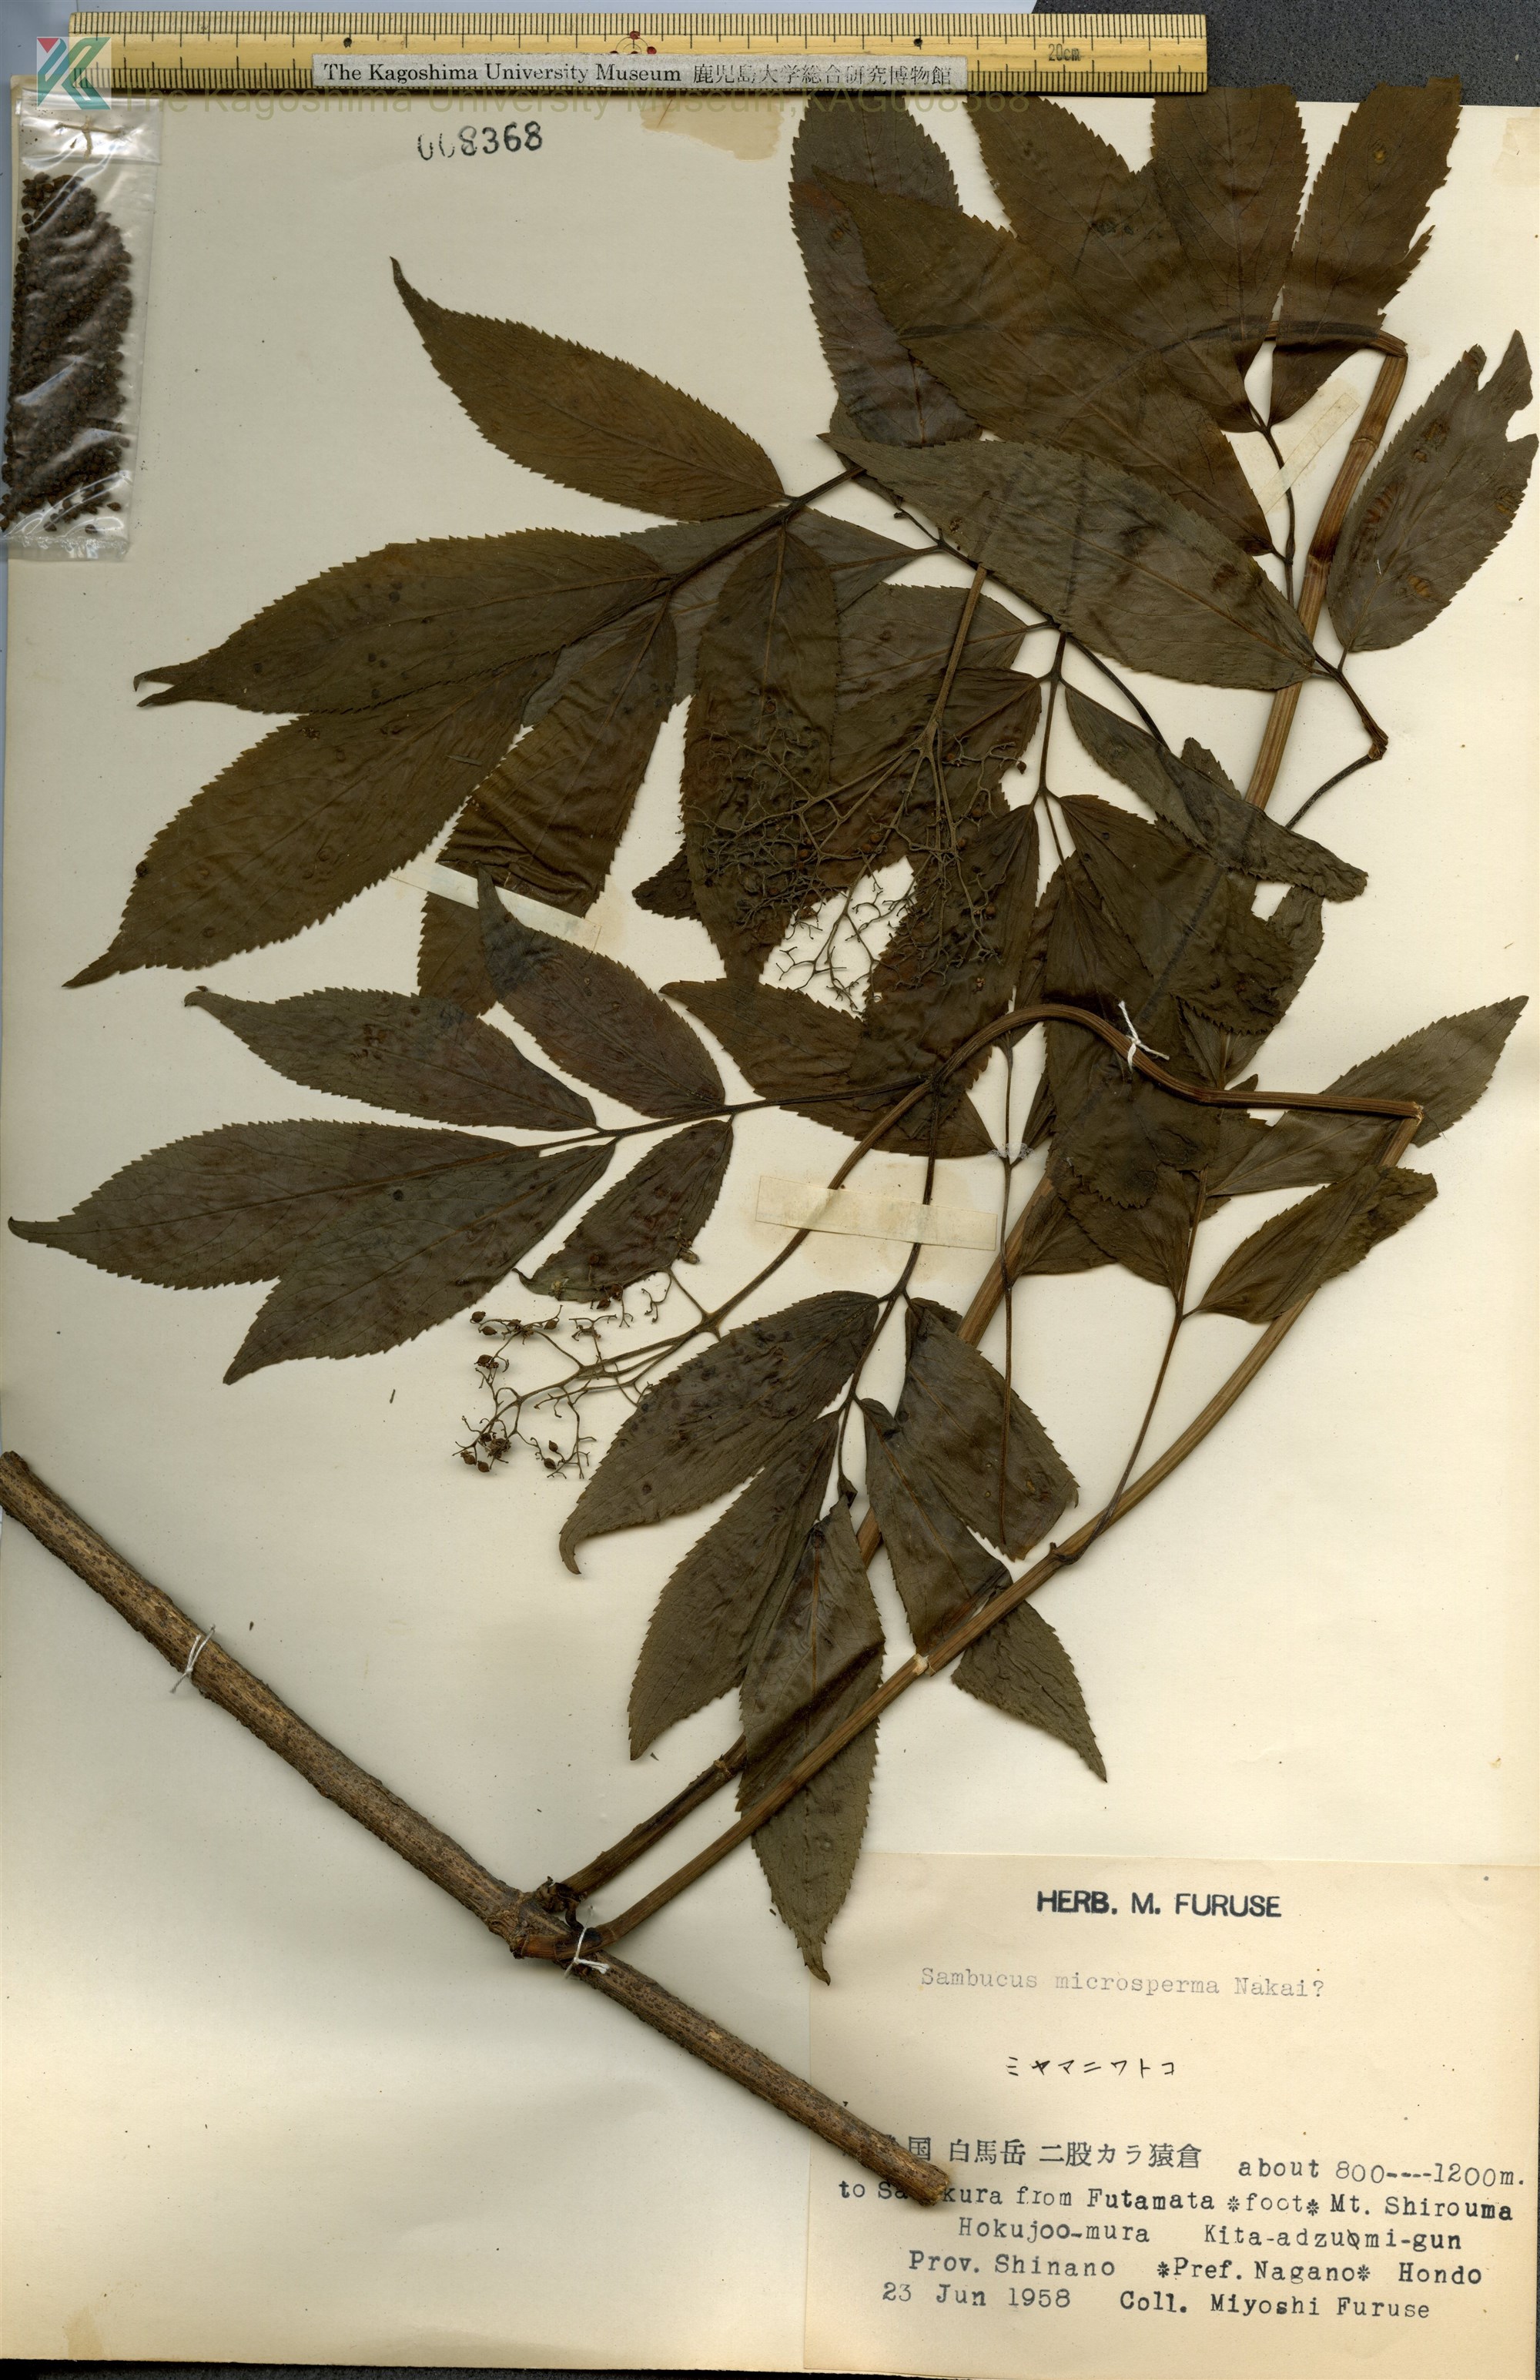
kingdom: Plantae
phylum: Tracheophyta
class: Magnoliopsida
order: Dipsacales
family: Viburnaceae
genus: Sambucus
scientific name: Sambucus
